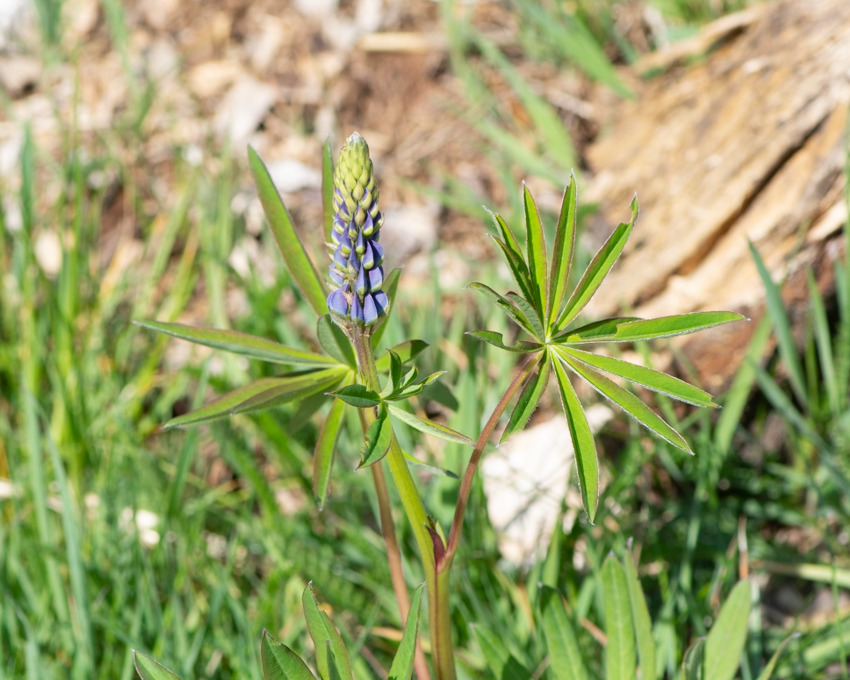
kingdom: Plantae
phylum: Tracheophyta
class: Magnoliopsida
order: Fabales
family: Fabaceae
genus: Lupinus
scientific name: Lupinus polyphyllus
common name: Mangebladet lupin
